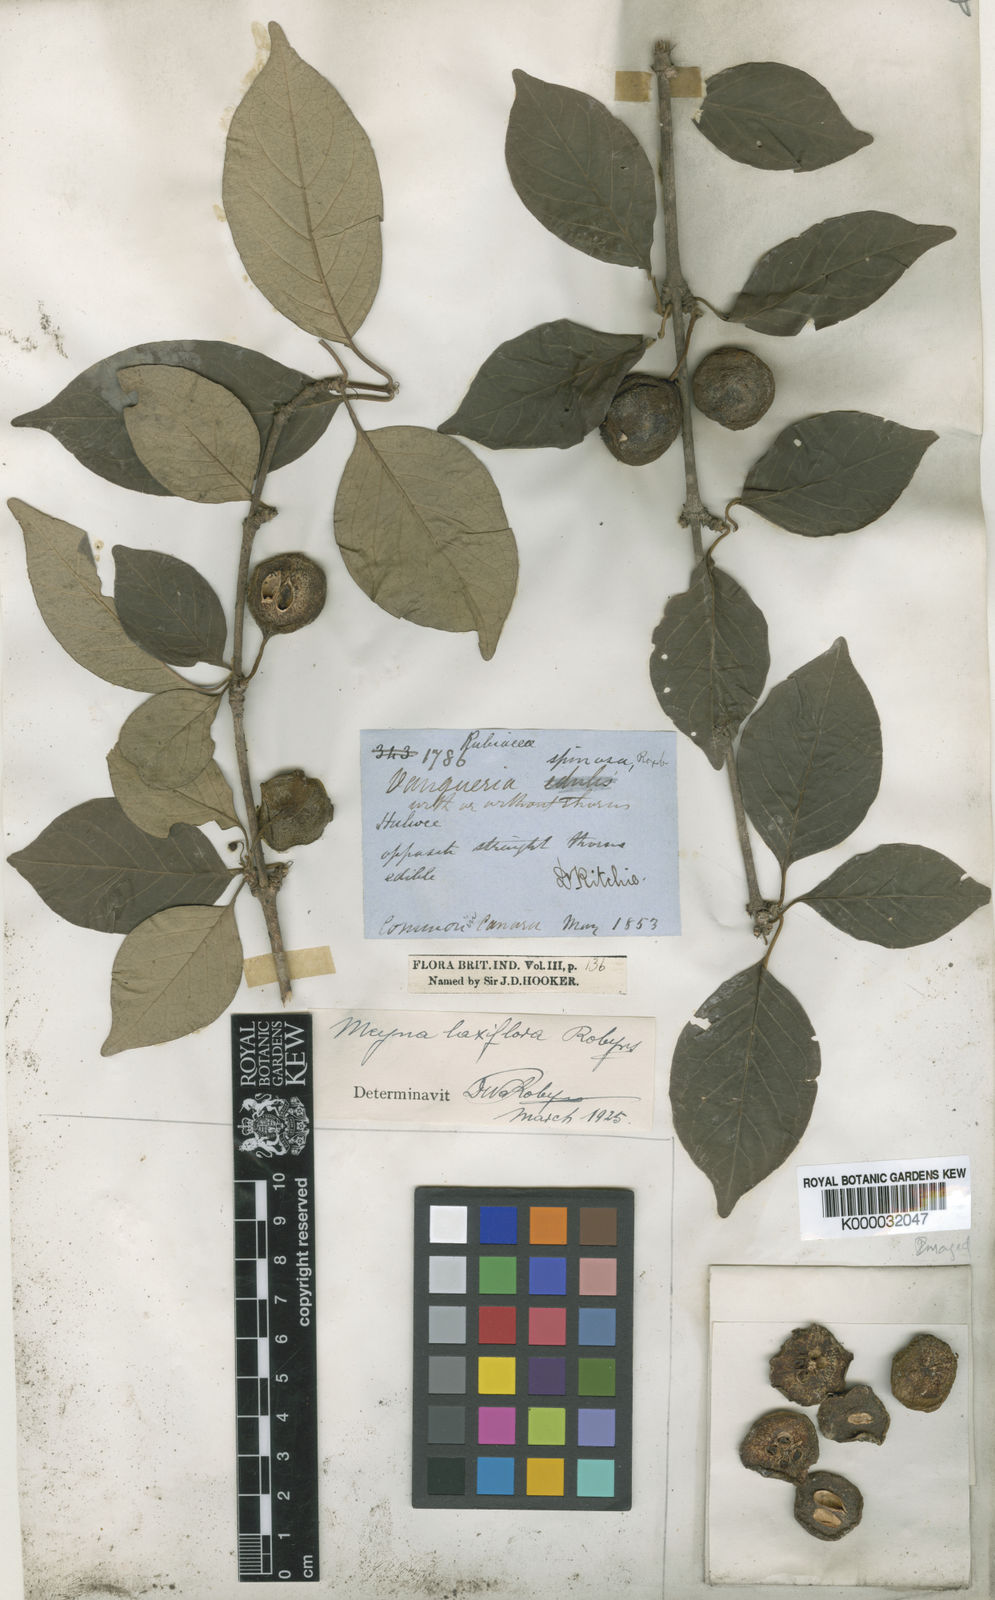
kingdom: Plantae
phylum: Tracheophyta
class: Magnoliopsida
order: Gentianales
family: Rubiaceae
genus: Meyna
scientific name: Meyna laxiflora
